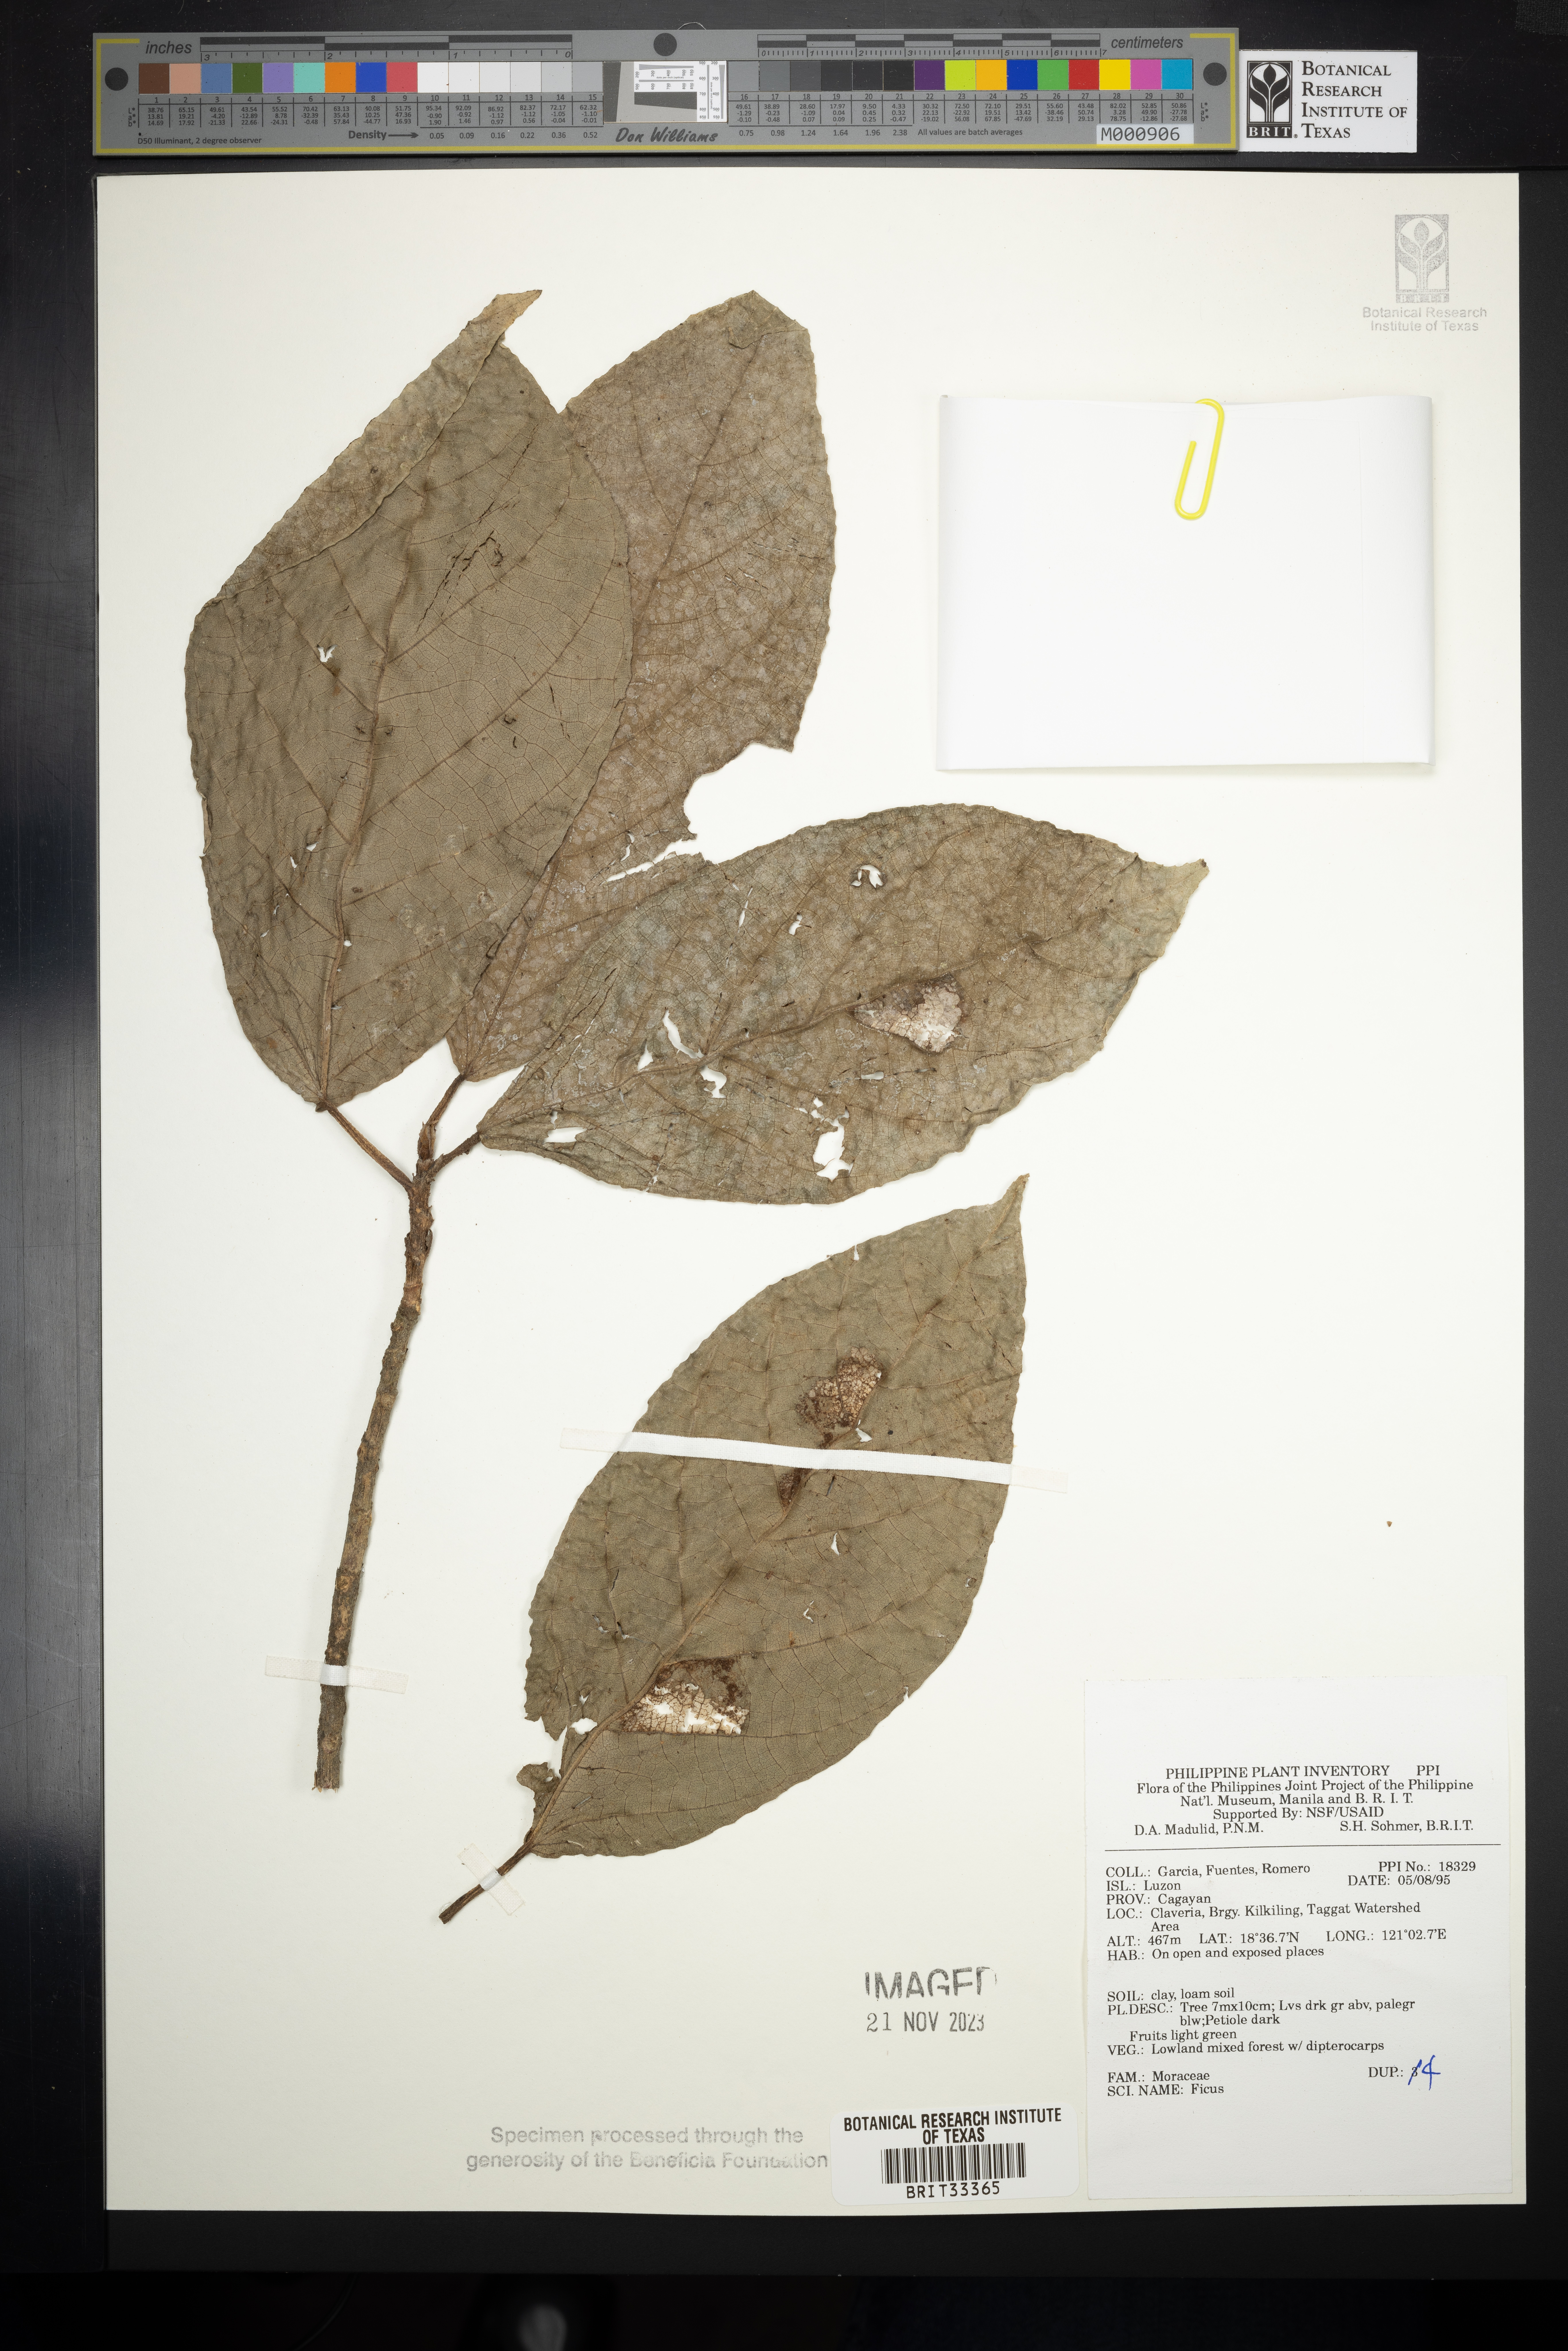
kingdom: Plantae
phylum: Tracheophyta
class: Magnoliopsida
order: Rosales
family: Moraceae
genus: Ficus
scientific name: Ficus
